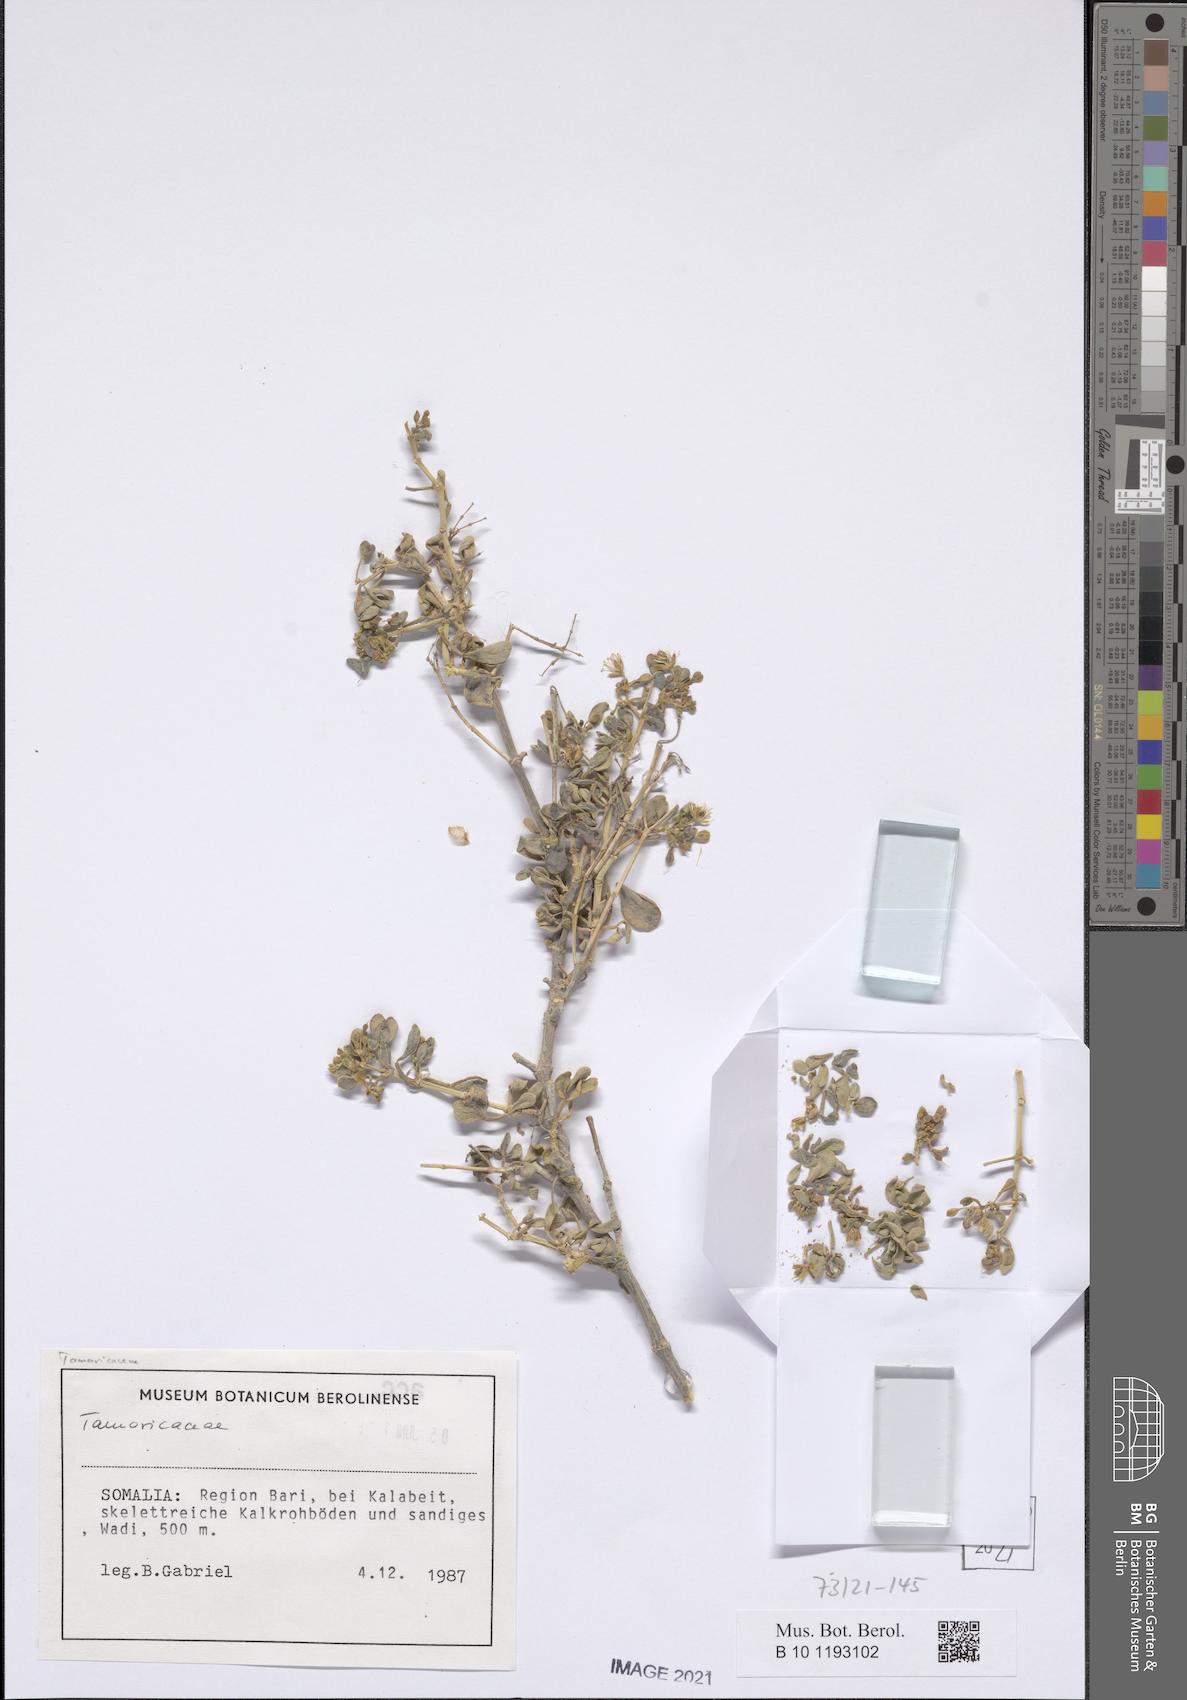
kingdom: Plantae
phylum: Tracheophyta
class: Magnoliopsida
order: Caryophyllales
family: Tamaricaceae
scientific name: Tamaricaceae
